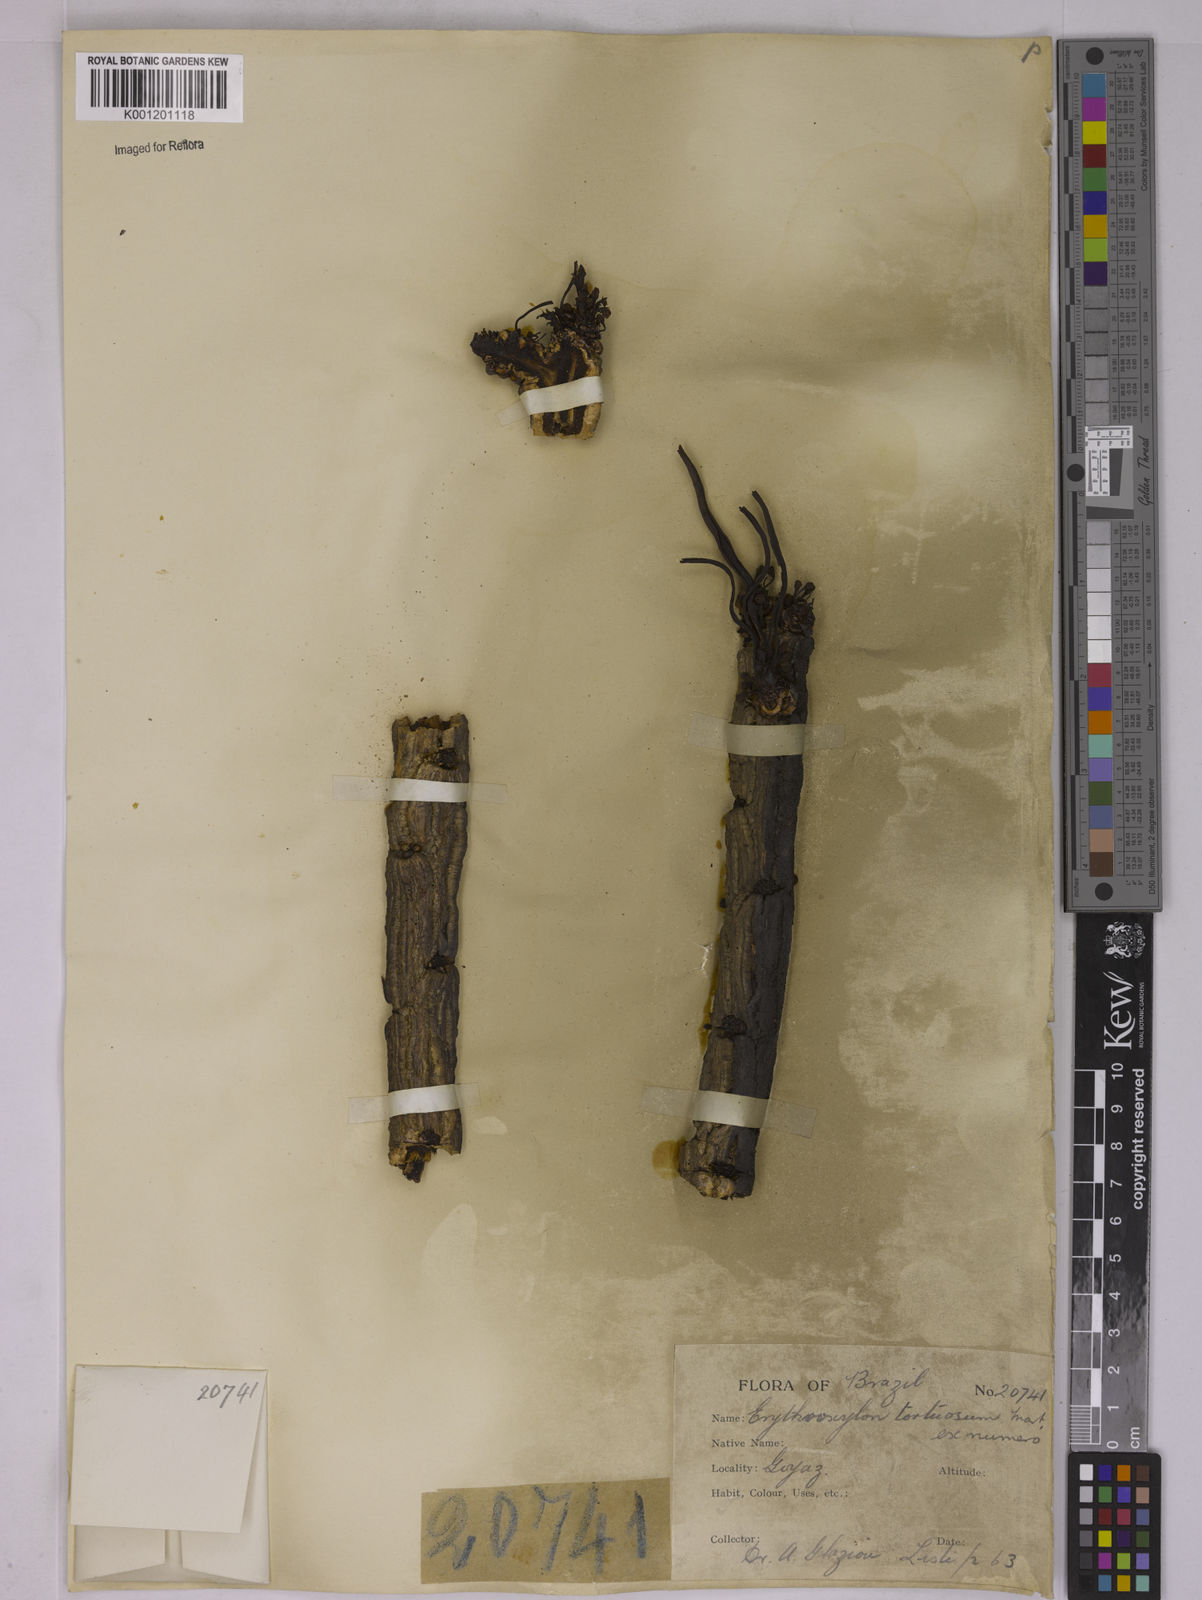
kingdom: Plantae
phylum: Tracheophyta
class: Magnoliopsida
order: Malpighiales
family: Erythroxylaceae
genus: Erythroxylum
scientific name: Erythroxylum tortuosum
